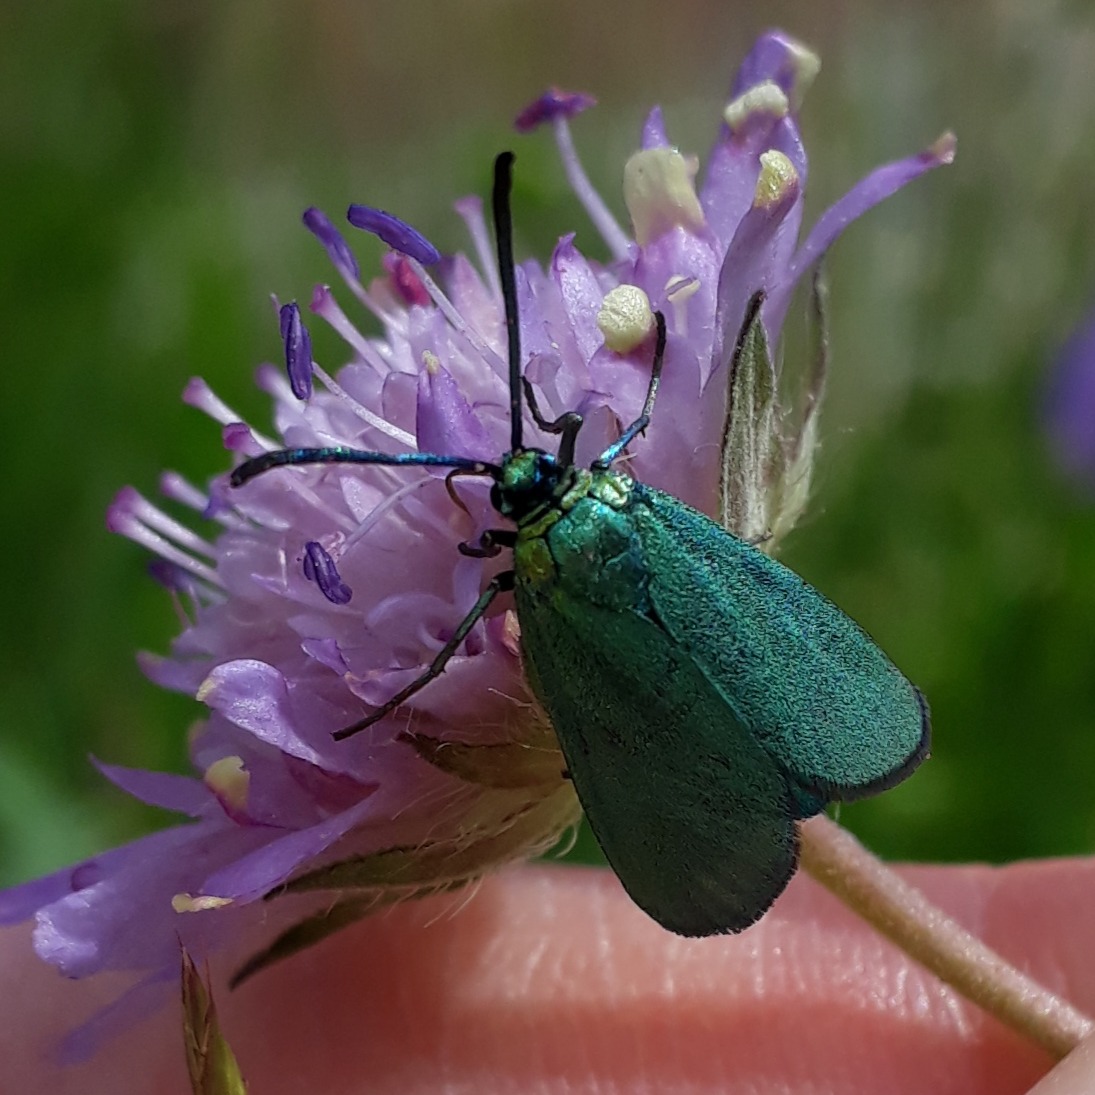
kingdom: Animalia
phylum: Arthropoda
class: Insecta
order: Lepidoptera
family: Zygaenidae
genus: Adscita
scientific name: Adscita statices
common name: Metalvinge
